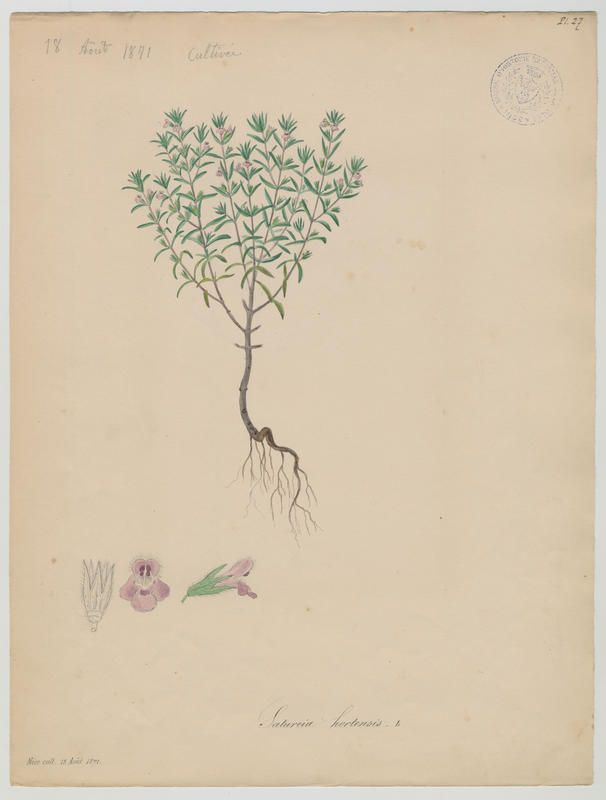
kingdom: Plantae
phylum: Tracheophyta
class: Magnoliopsida
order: Lamiales
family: Lamiaceae
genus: Satureja
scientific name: Satureja hortensis
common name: Summer savory
